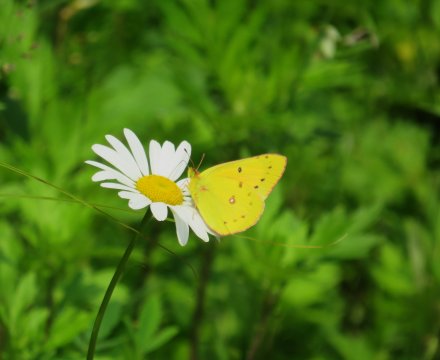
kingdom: Animalia
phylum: Arthropoda
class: Insecta
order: Lepidoptera
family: Pieridae
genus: Colias
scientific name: Colias eurytheme
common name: Orange Sulphur
